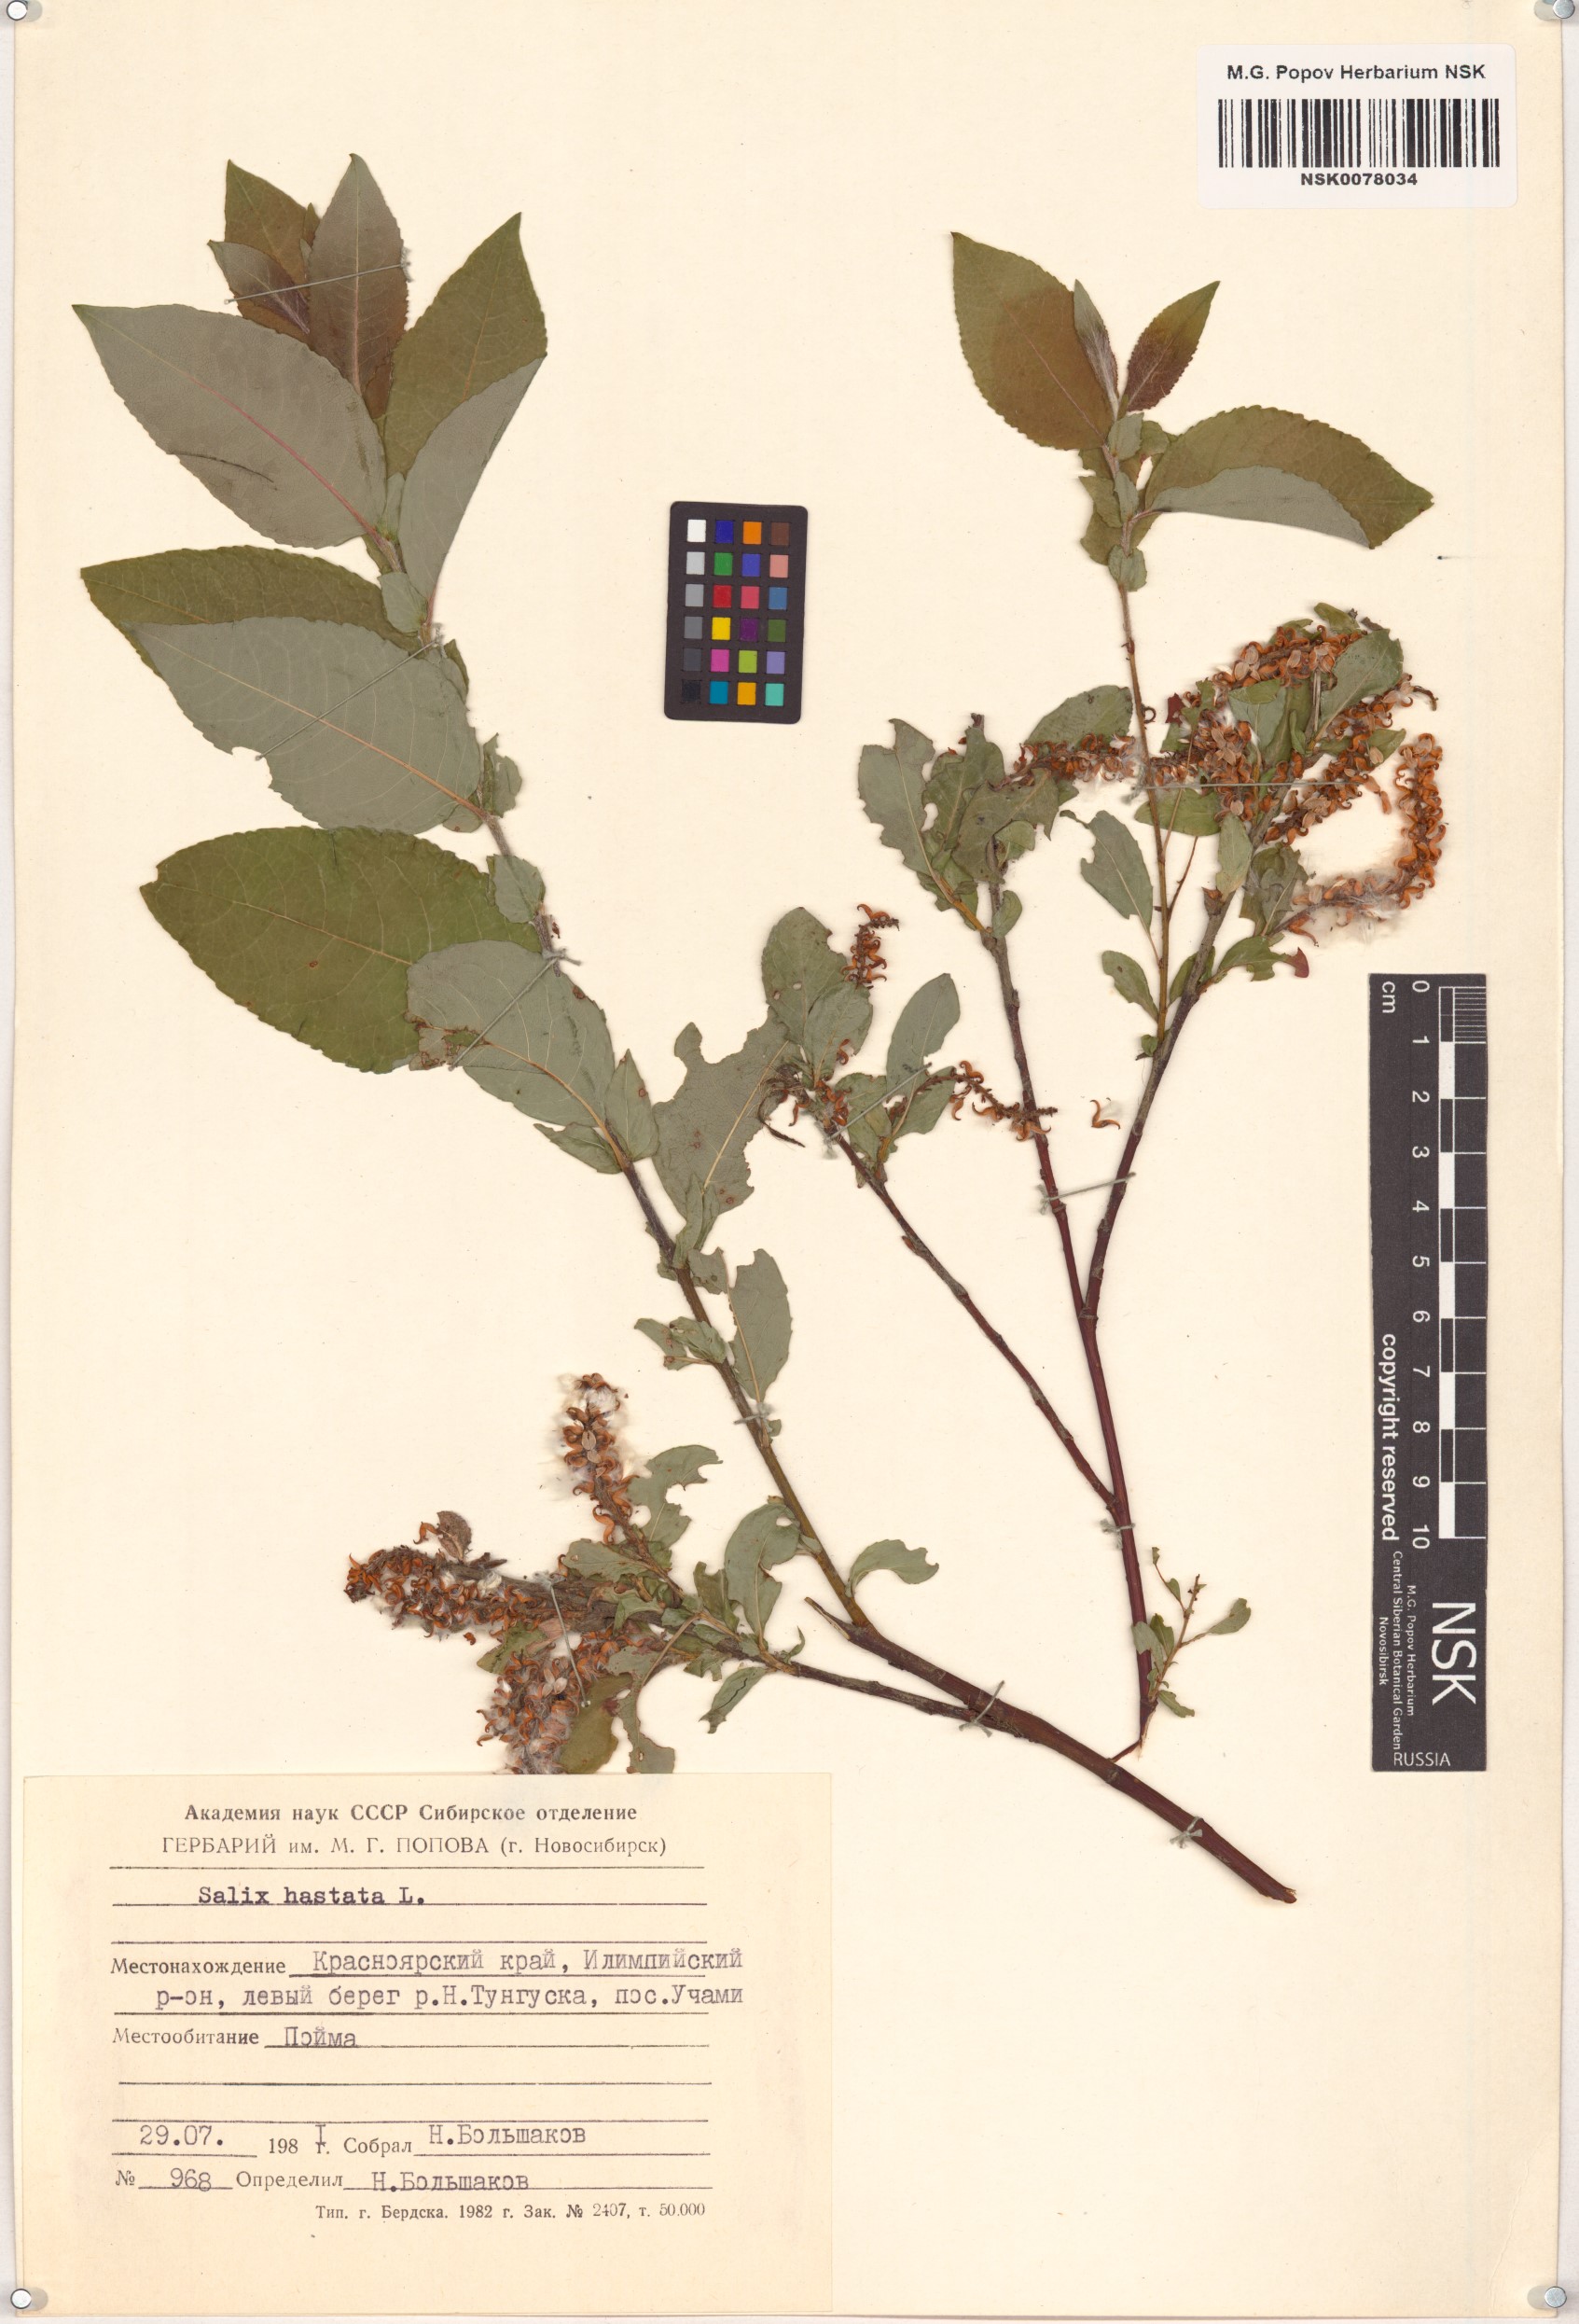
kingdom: Plantae
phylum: Tracheophyta
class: Magnoliopsida
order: Malpighiales
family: Salicaceae
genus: Salix
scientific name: Salix hastata
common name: Halberd willow
